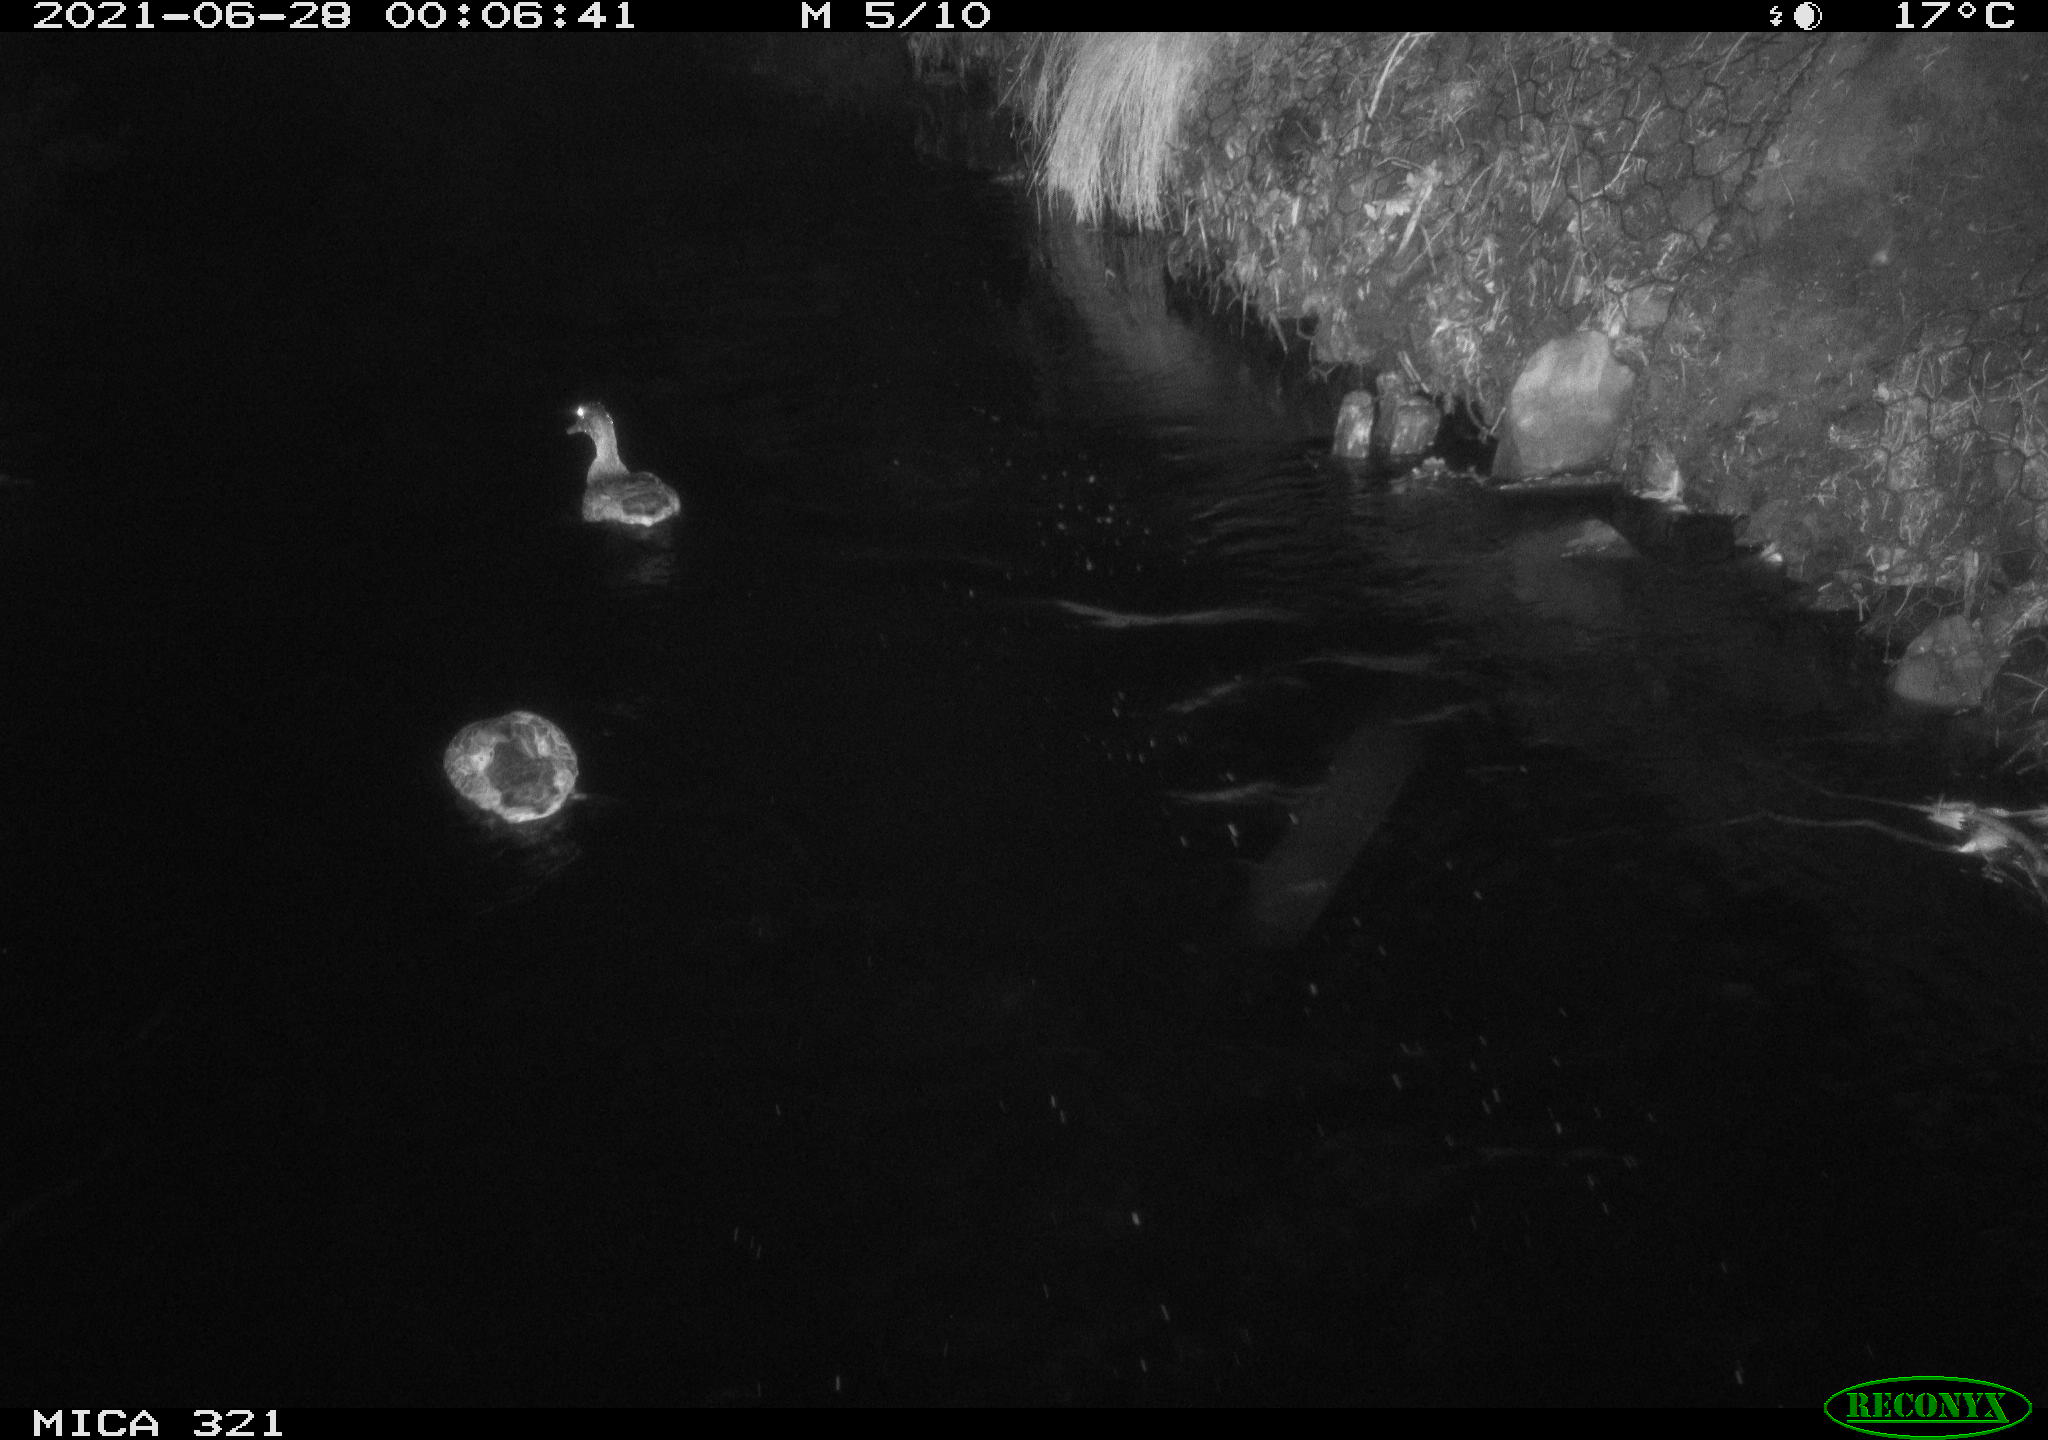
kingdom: Animalia
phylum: Chordata
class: Aves
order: Anseriformes
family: Anatidae
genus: Anas
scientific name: Anas platyrhynchos
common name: Mallard
